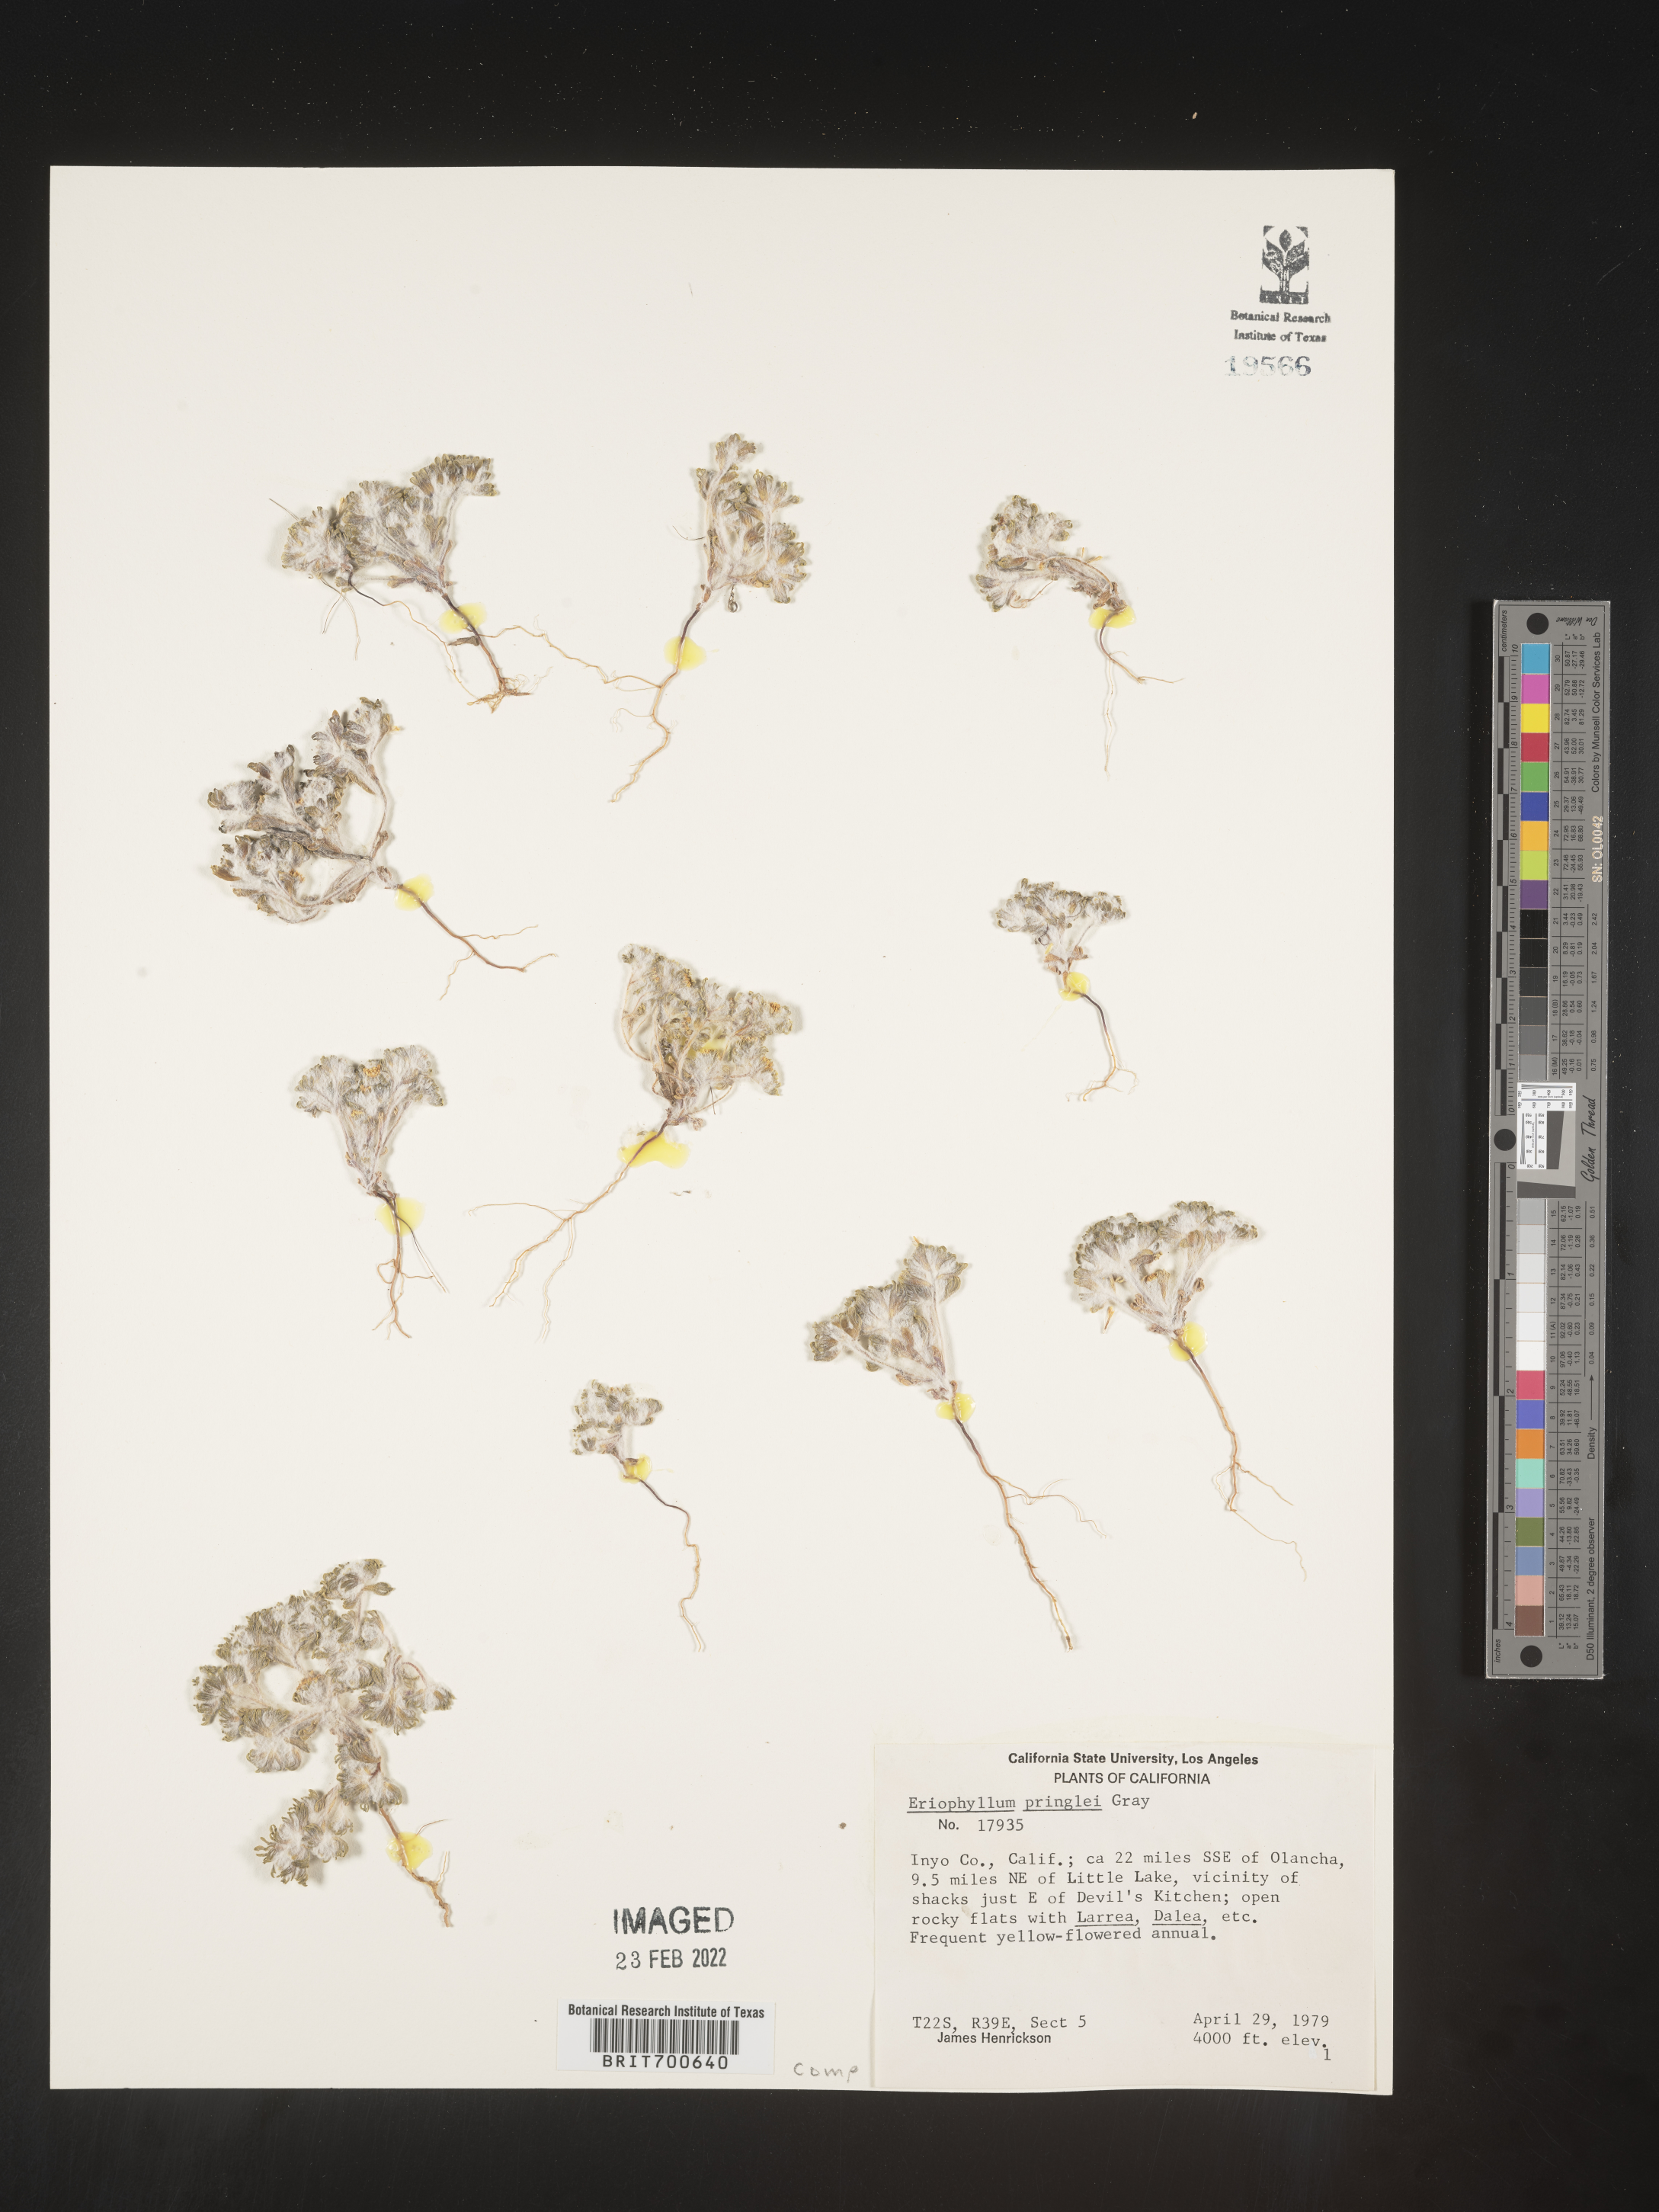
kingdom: Plantae
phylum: Tracheophyta
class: Magnoliopsida
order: Asterales
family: Asteraceae
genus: Eriophyllum
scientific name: Eriophyllum pringlei
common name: Pringle's woolly-sunflower
